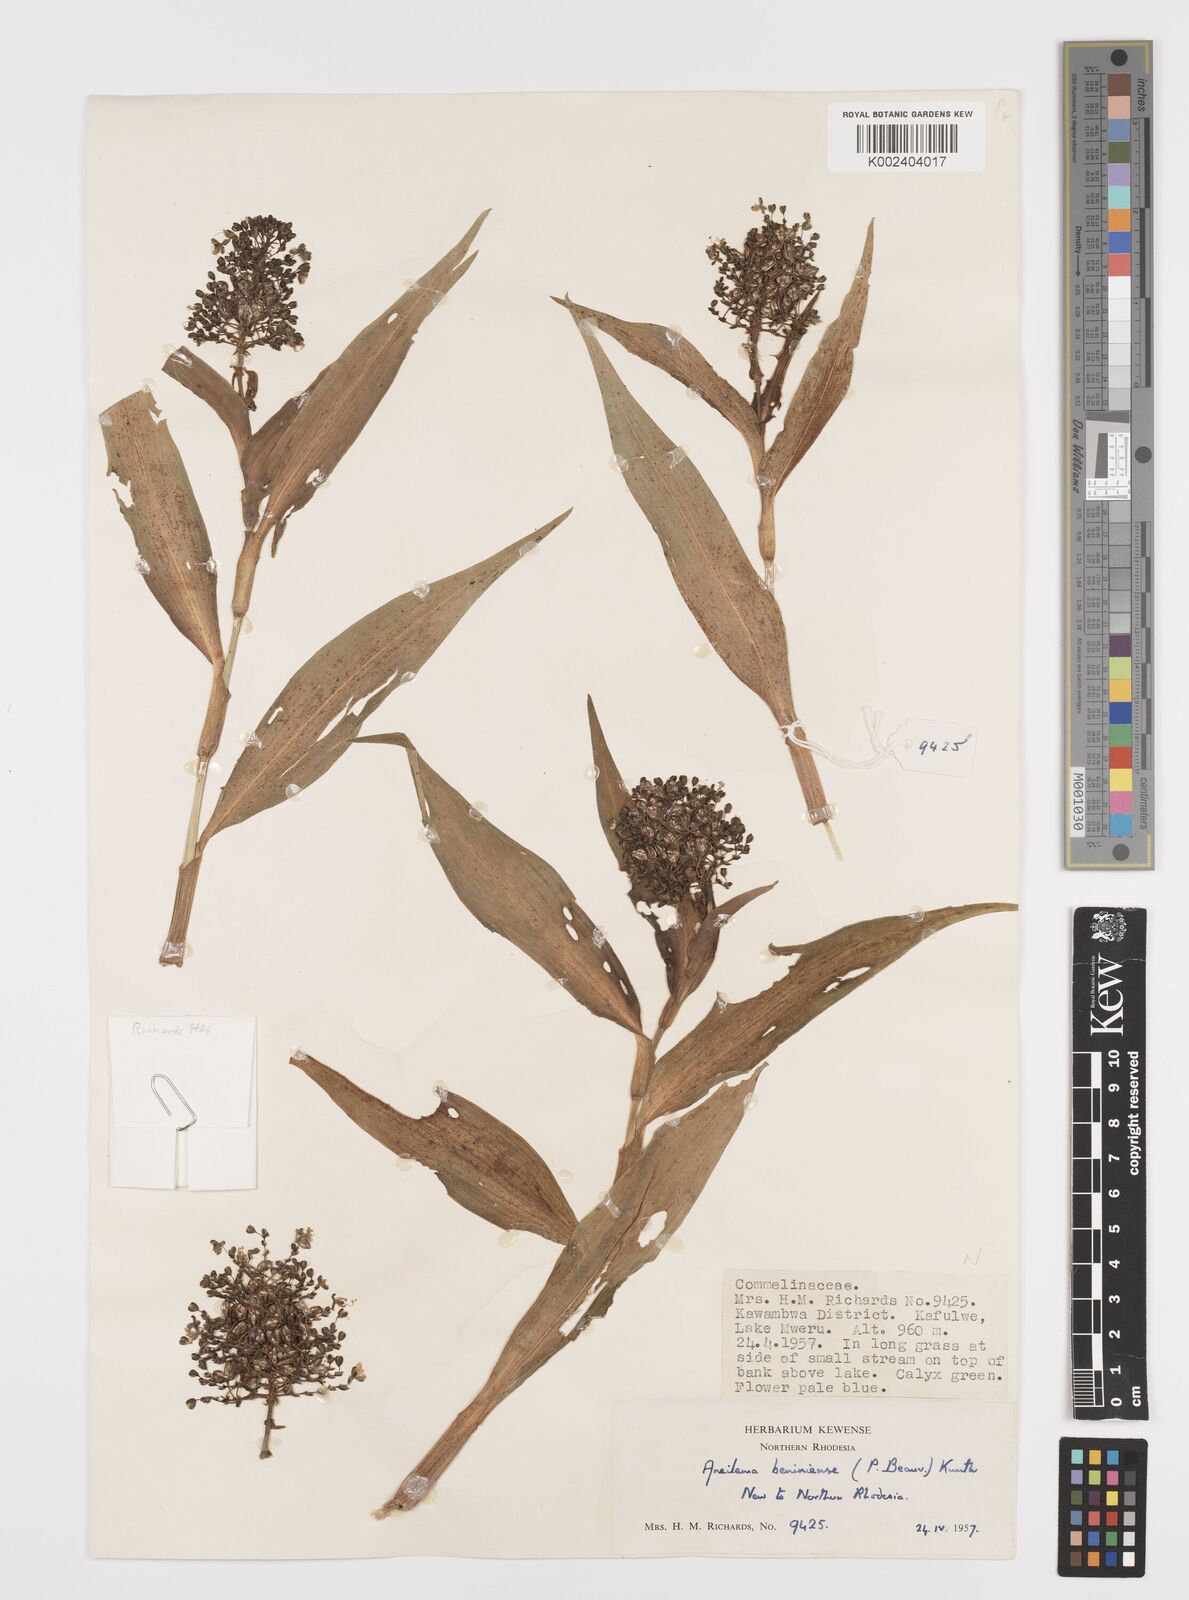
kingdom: Plantae
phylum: Tracheophyta
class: Liliopsida
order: Commelinales
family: Commelinaceae
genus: Aneilema
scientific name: Aneilema beniniense
